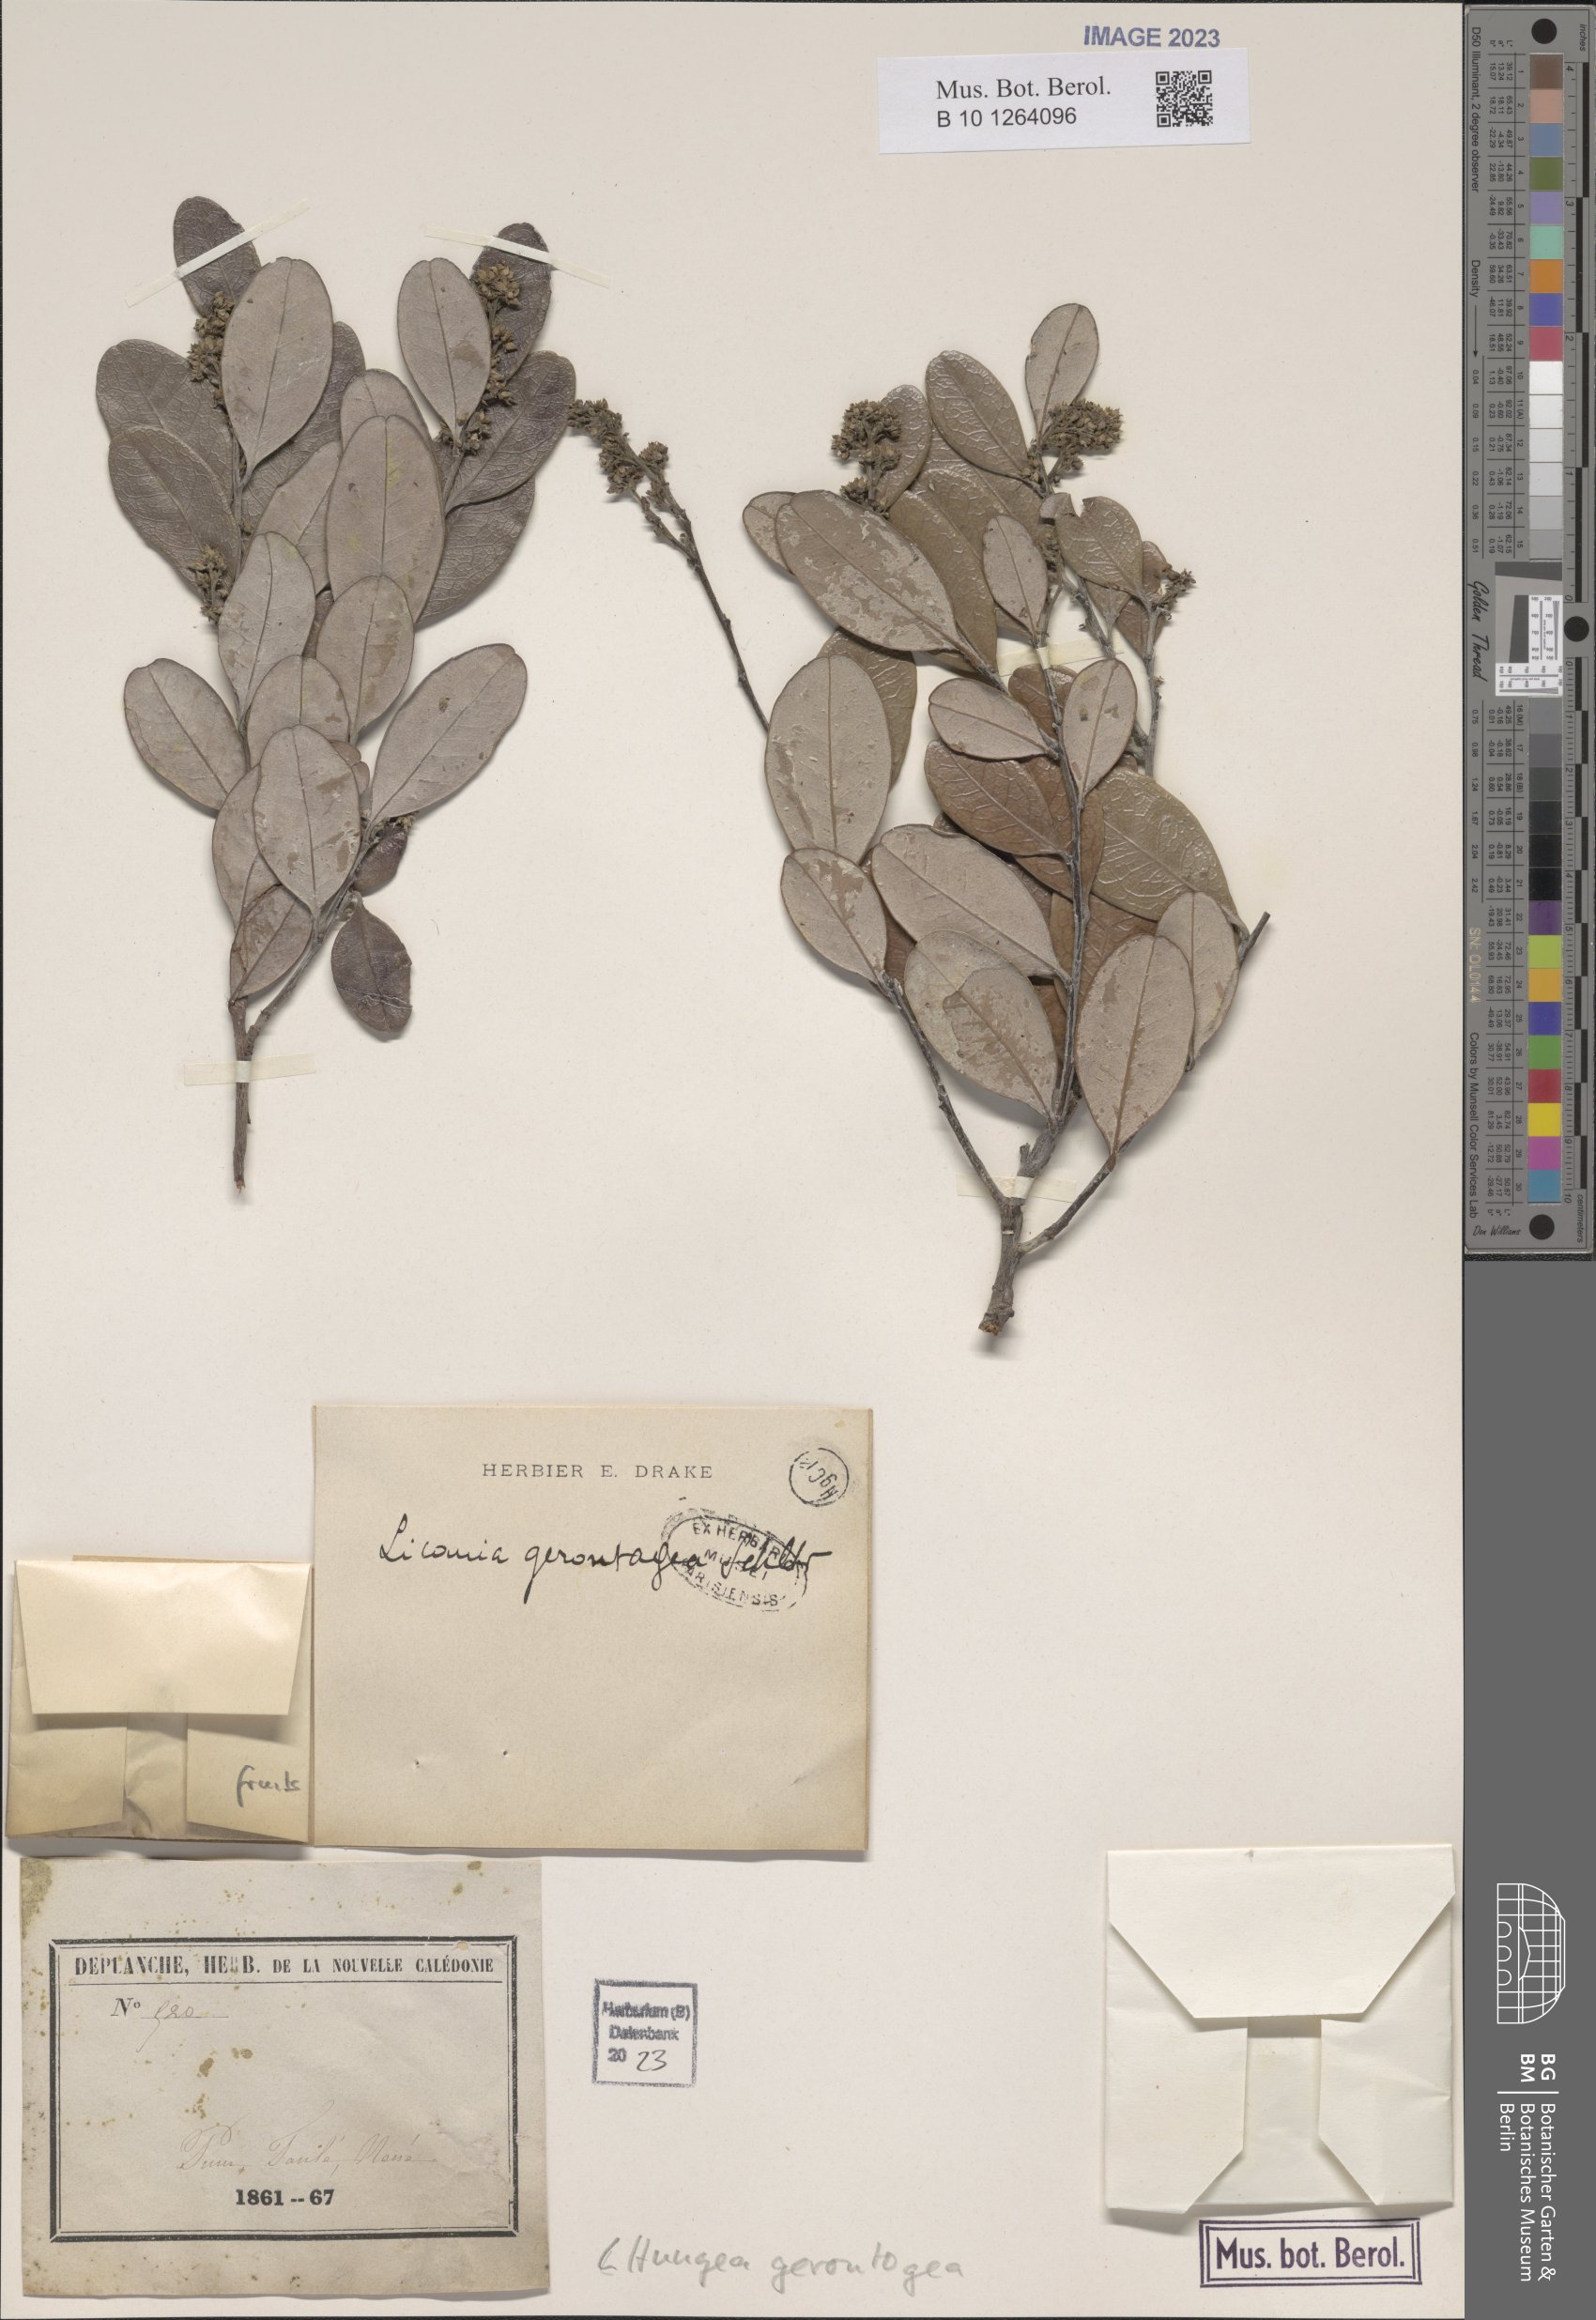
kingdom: Plantae
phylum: Tracheophyta
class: Magnoliopsida
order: Malpighiales
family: Chrysobalanaceae
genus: Hunga
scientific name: Hunga gerontogea
